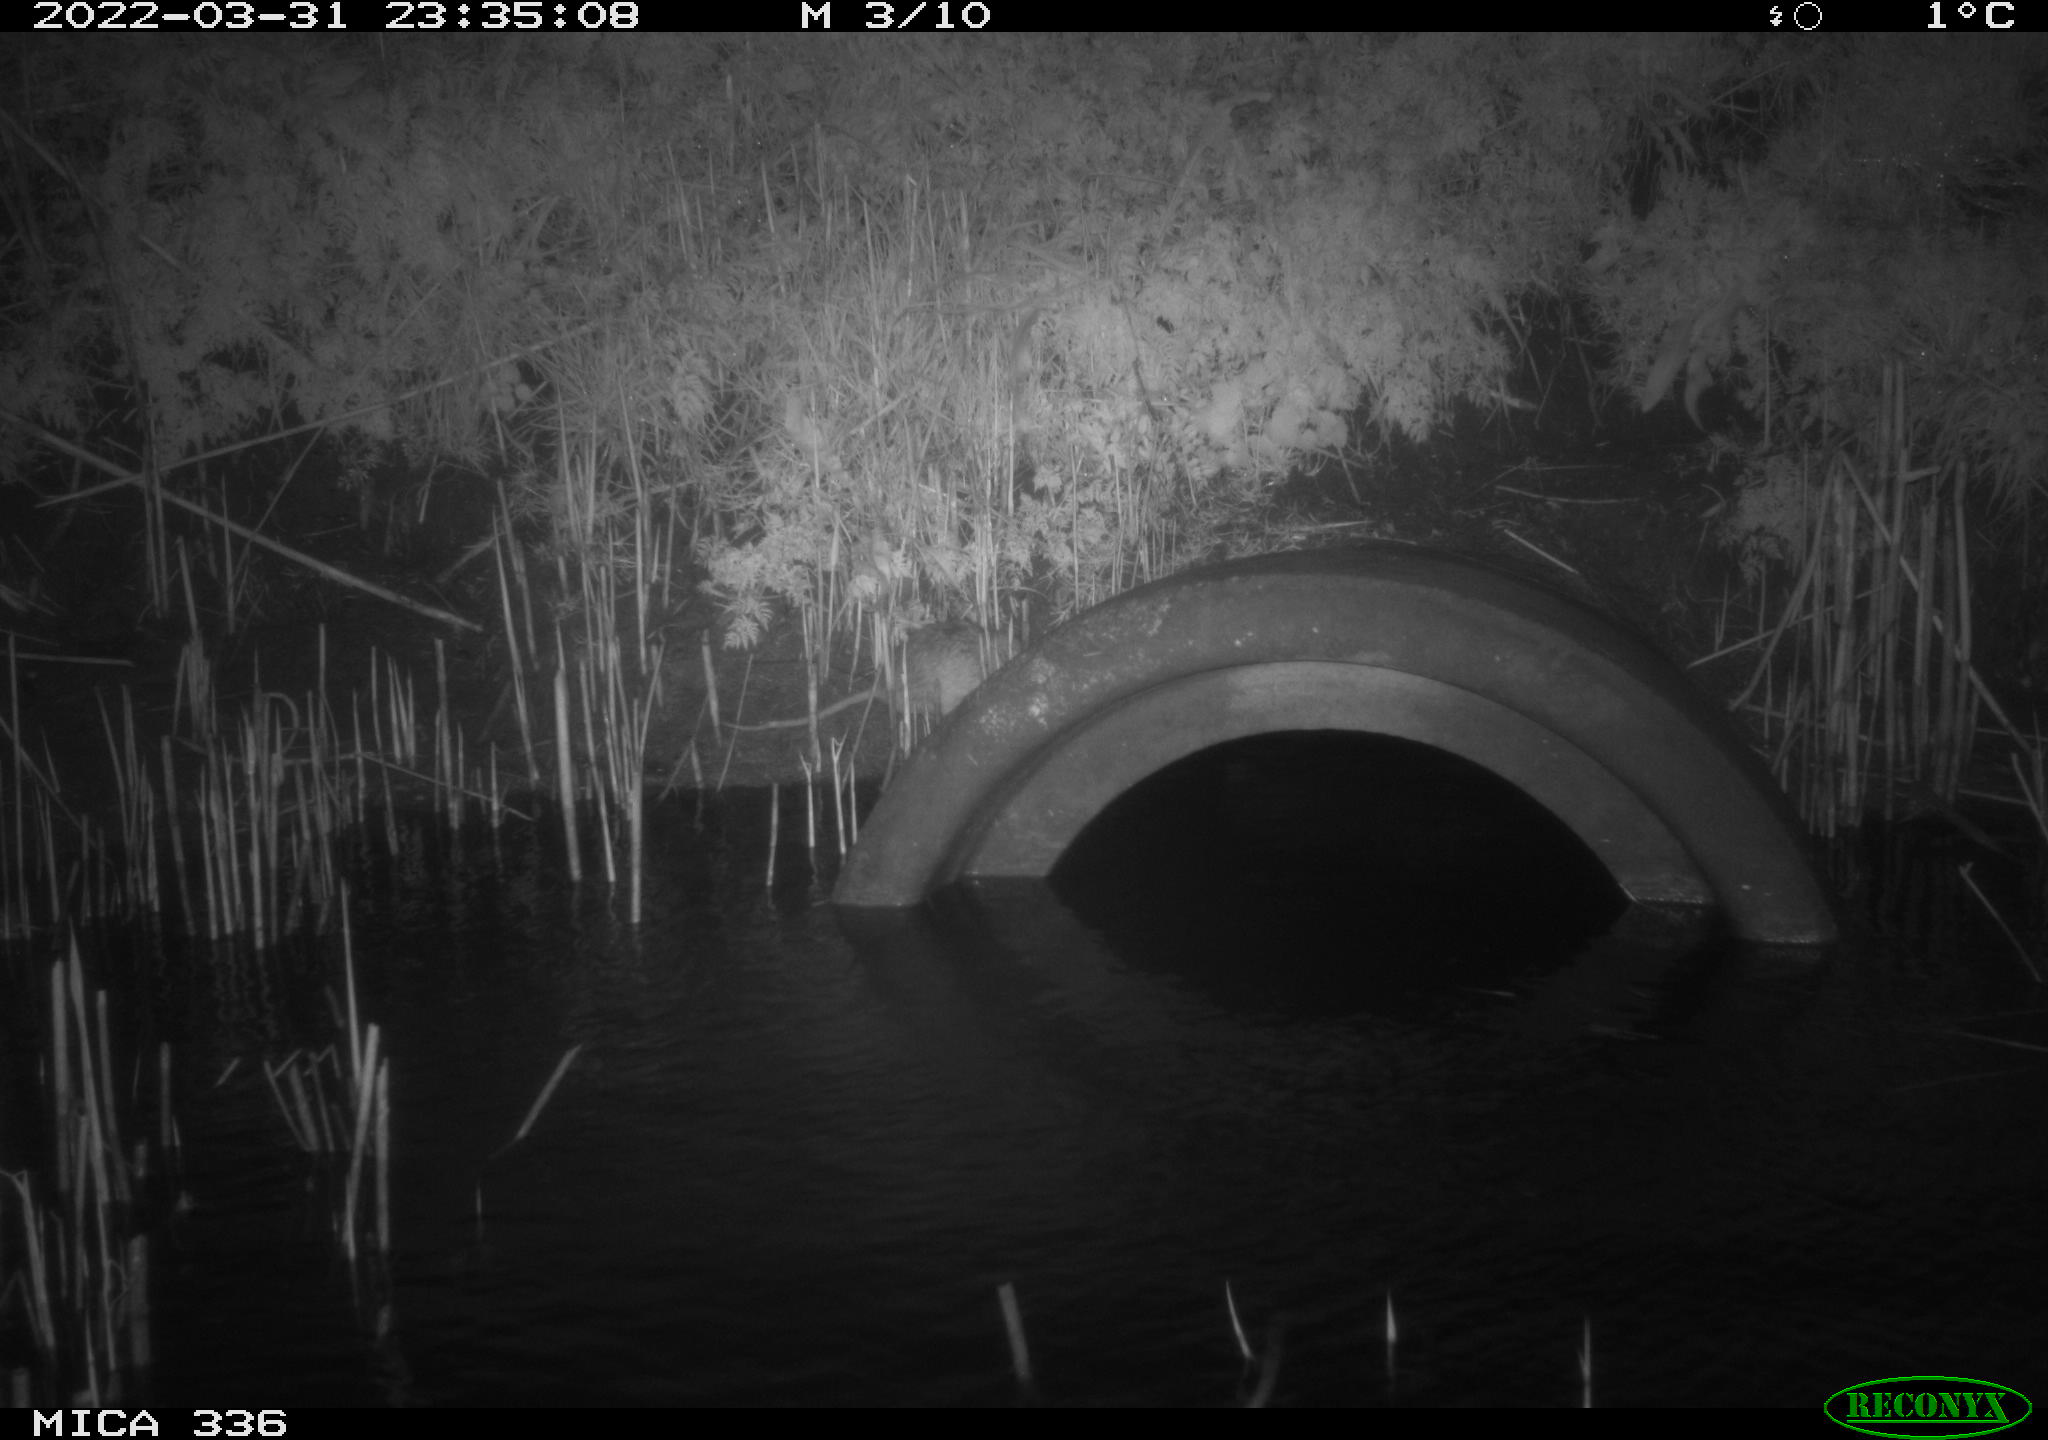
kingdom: Animalia
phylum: Chordata
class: Mammalia
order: Rodentia
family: Muridae
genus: Rattus
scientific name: Rattus norvegicus
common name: Brown rat
